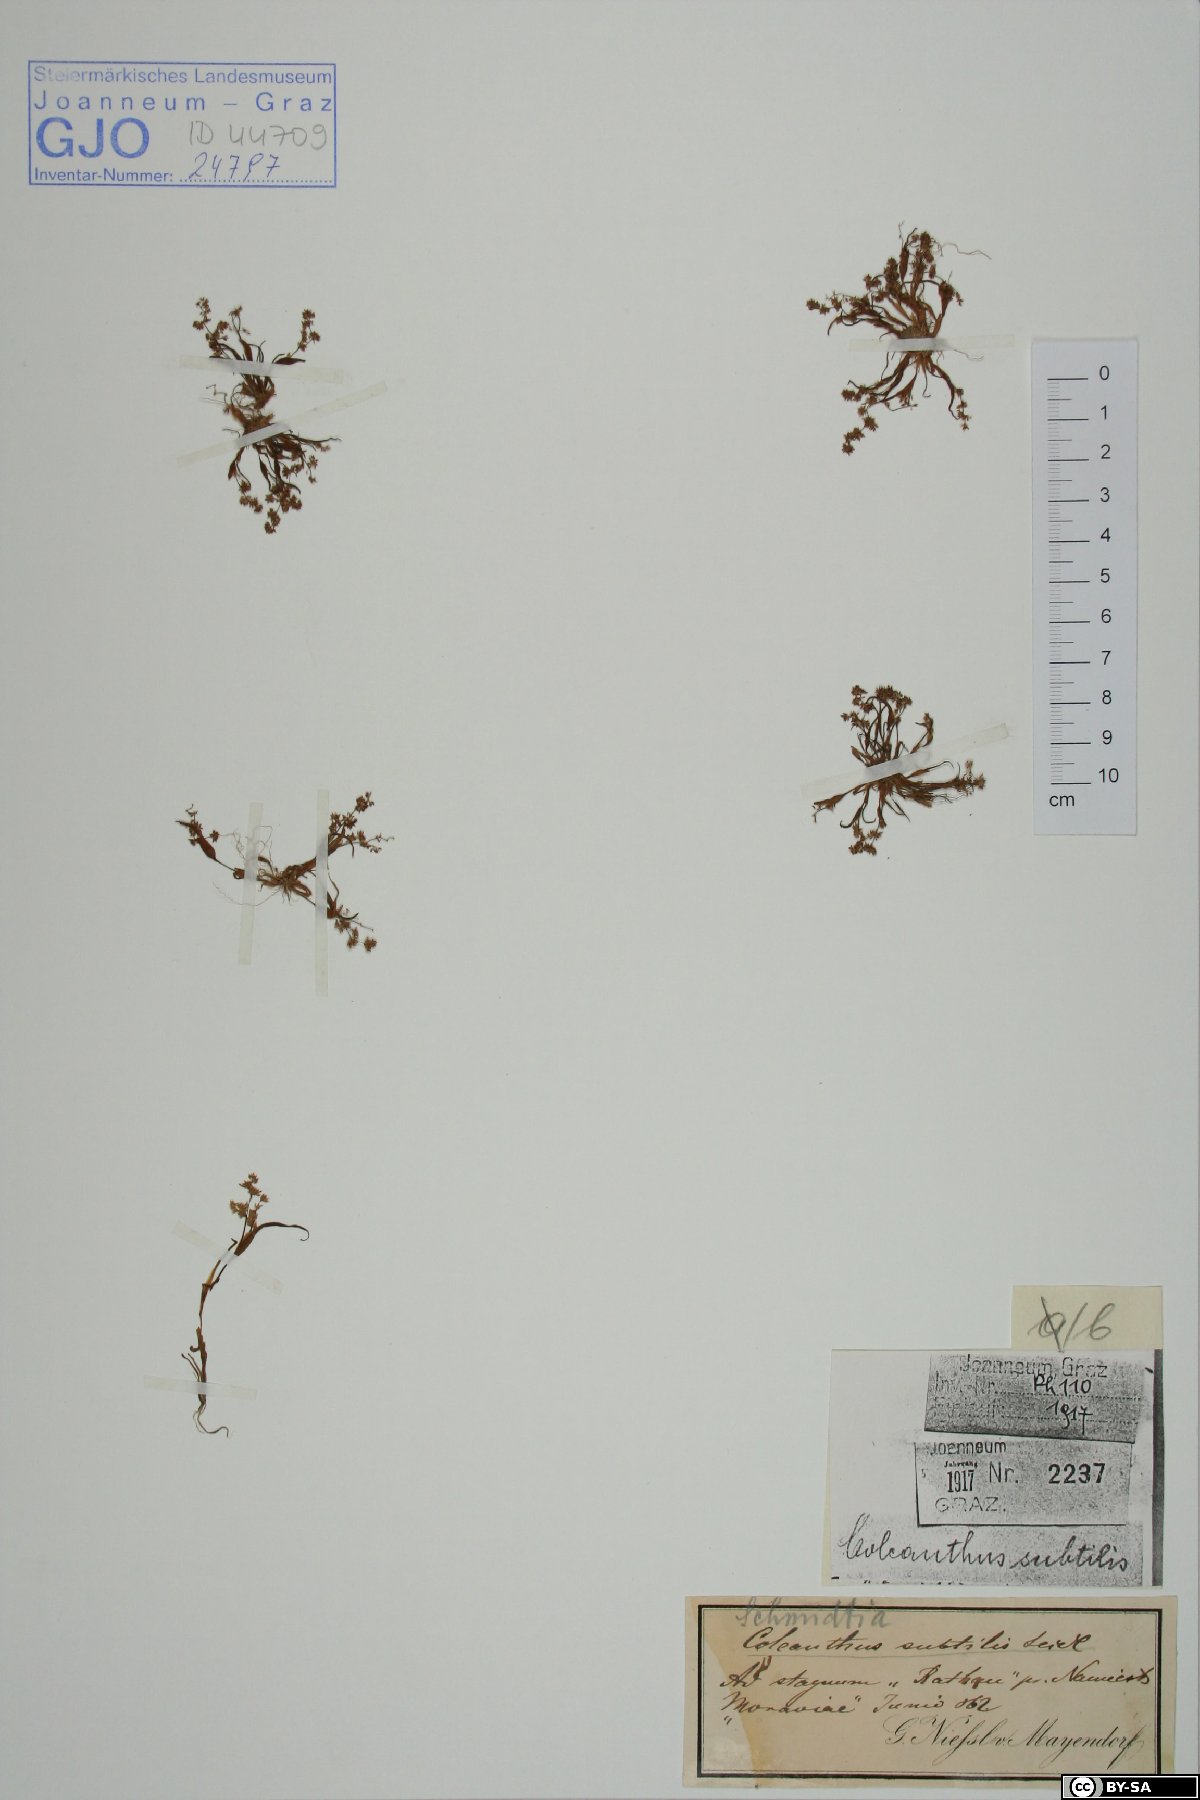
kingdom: Plantae
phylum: Tracheophyta
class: Liliopsida
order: Poales
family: Poaceae
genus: Coleanthus
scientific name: Coleanthus subtilis
